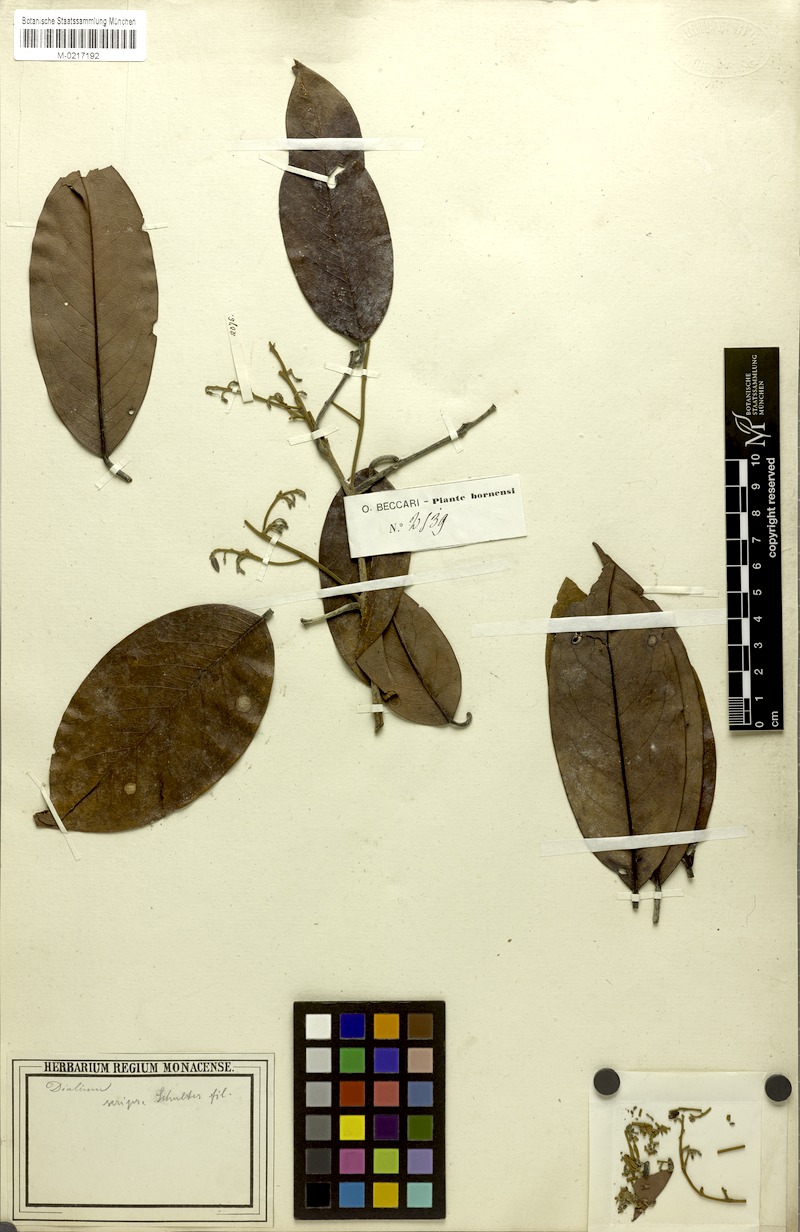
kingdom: Plantae
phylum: Tracheophyta
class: Magnoliopsida
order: Fabales
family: Fabaceae
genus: Dialium
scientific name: Dialium
